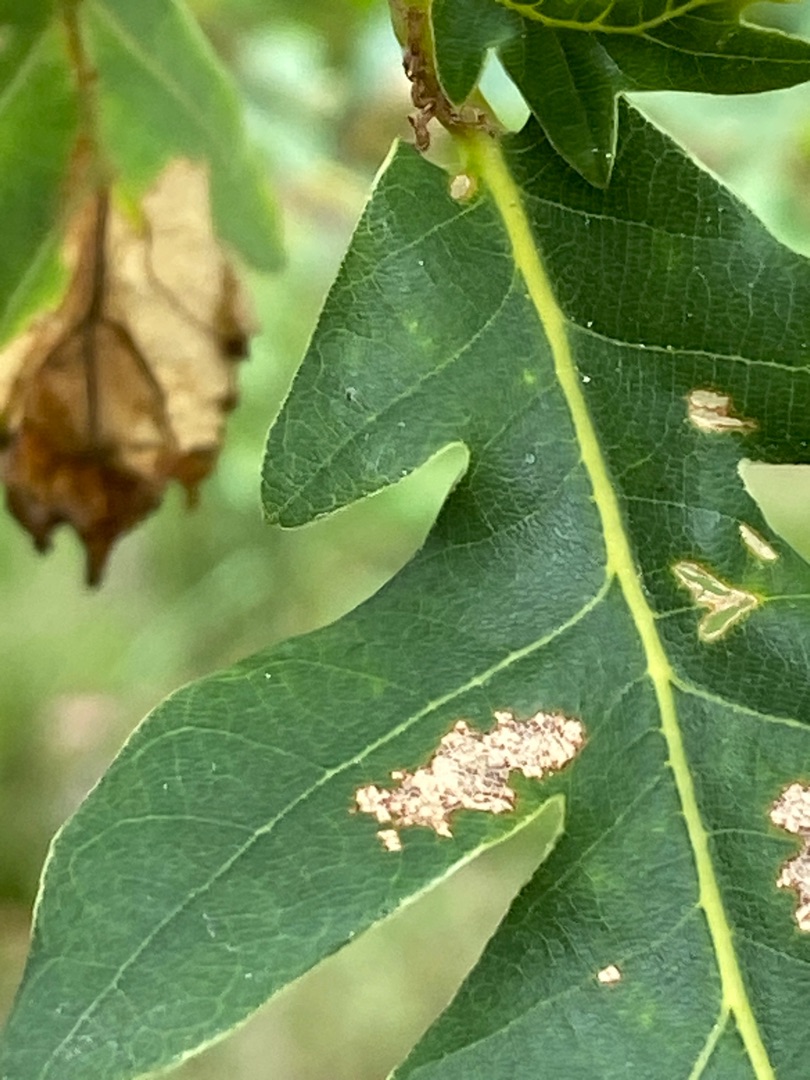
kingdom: Animalia
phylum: Arthropoda
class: Insecta
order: Diptera
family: Cecidomyiidae
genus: Macrodiplosis
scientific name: Macrodiplosis volvens
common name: Egerullegalmyg
